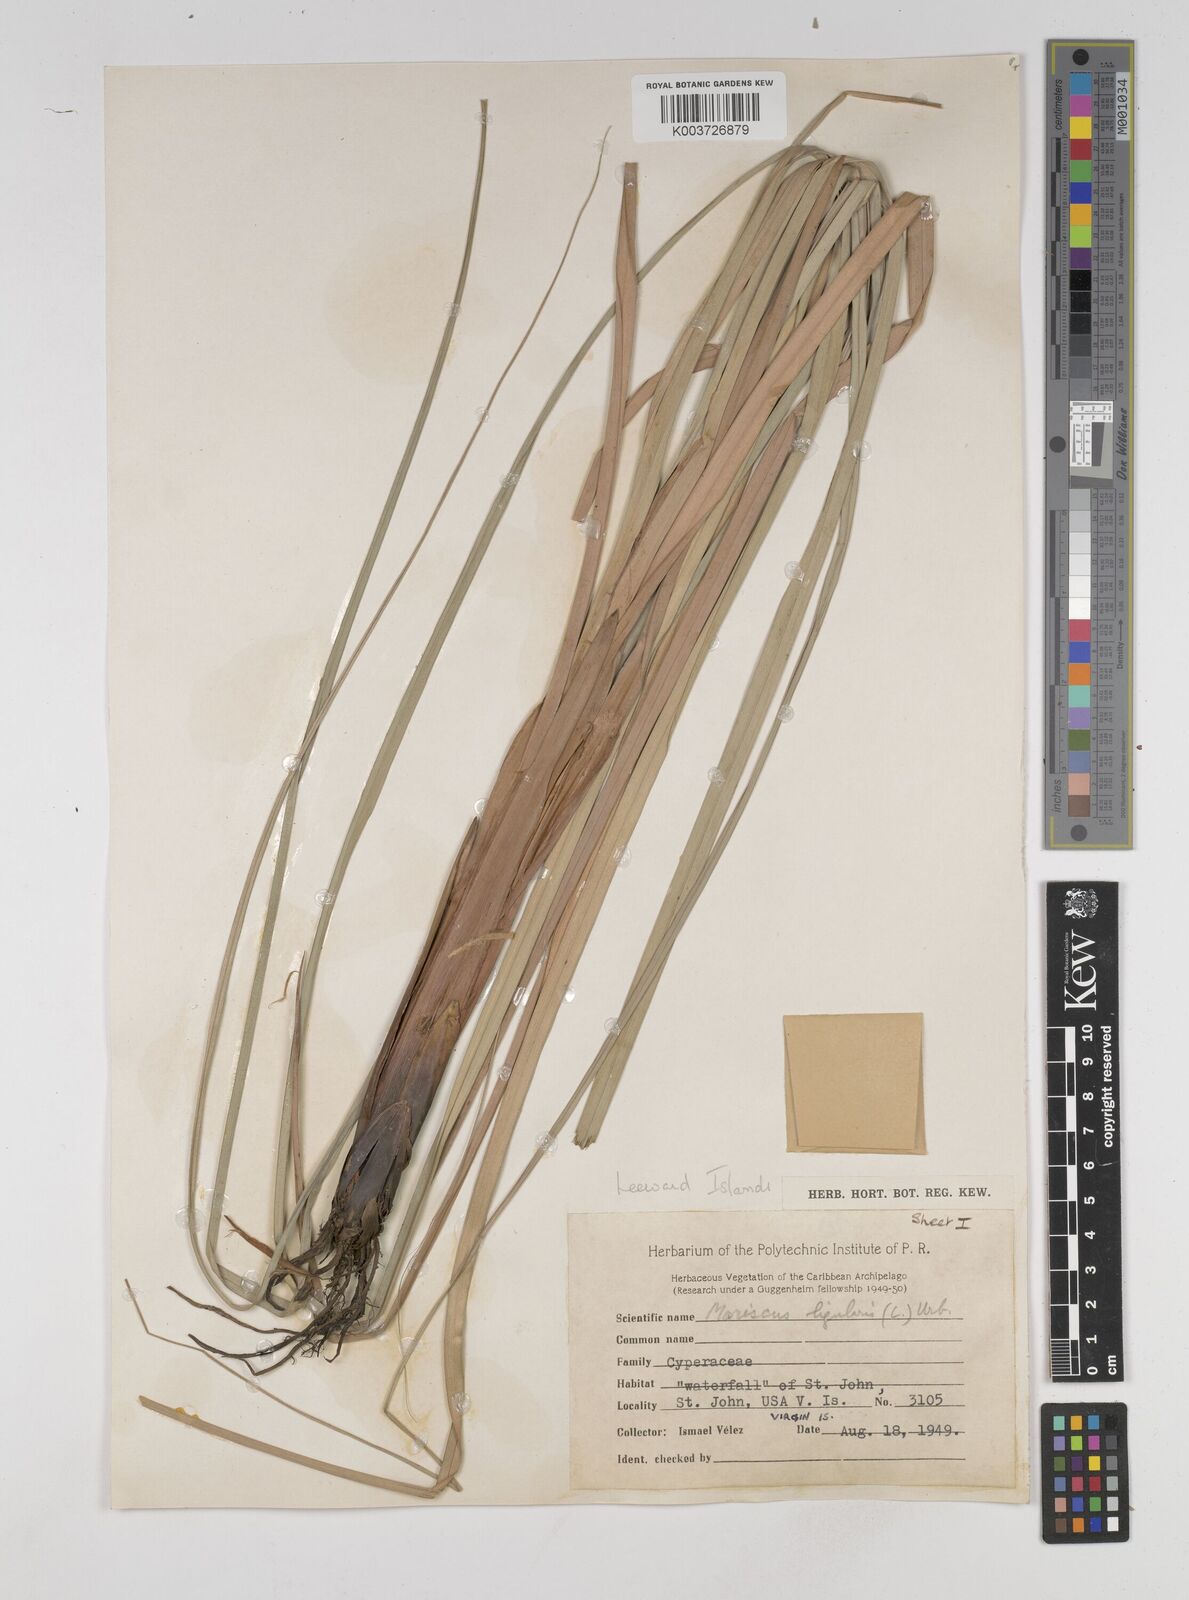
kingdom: Plantae
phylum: Tracheophyta
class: Liliopsida
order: Poales
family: Cyperaceae
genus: Cyperus
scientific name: Cyperus ligularis
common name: Swamp flat sedge
